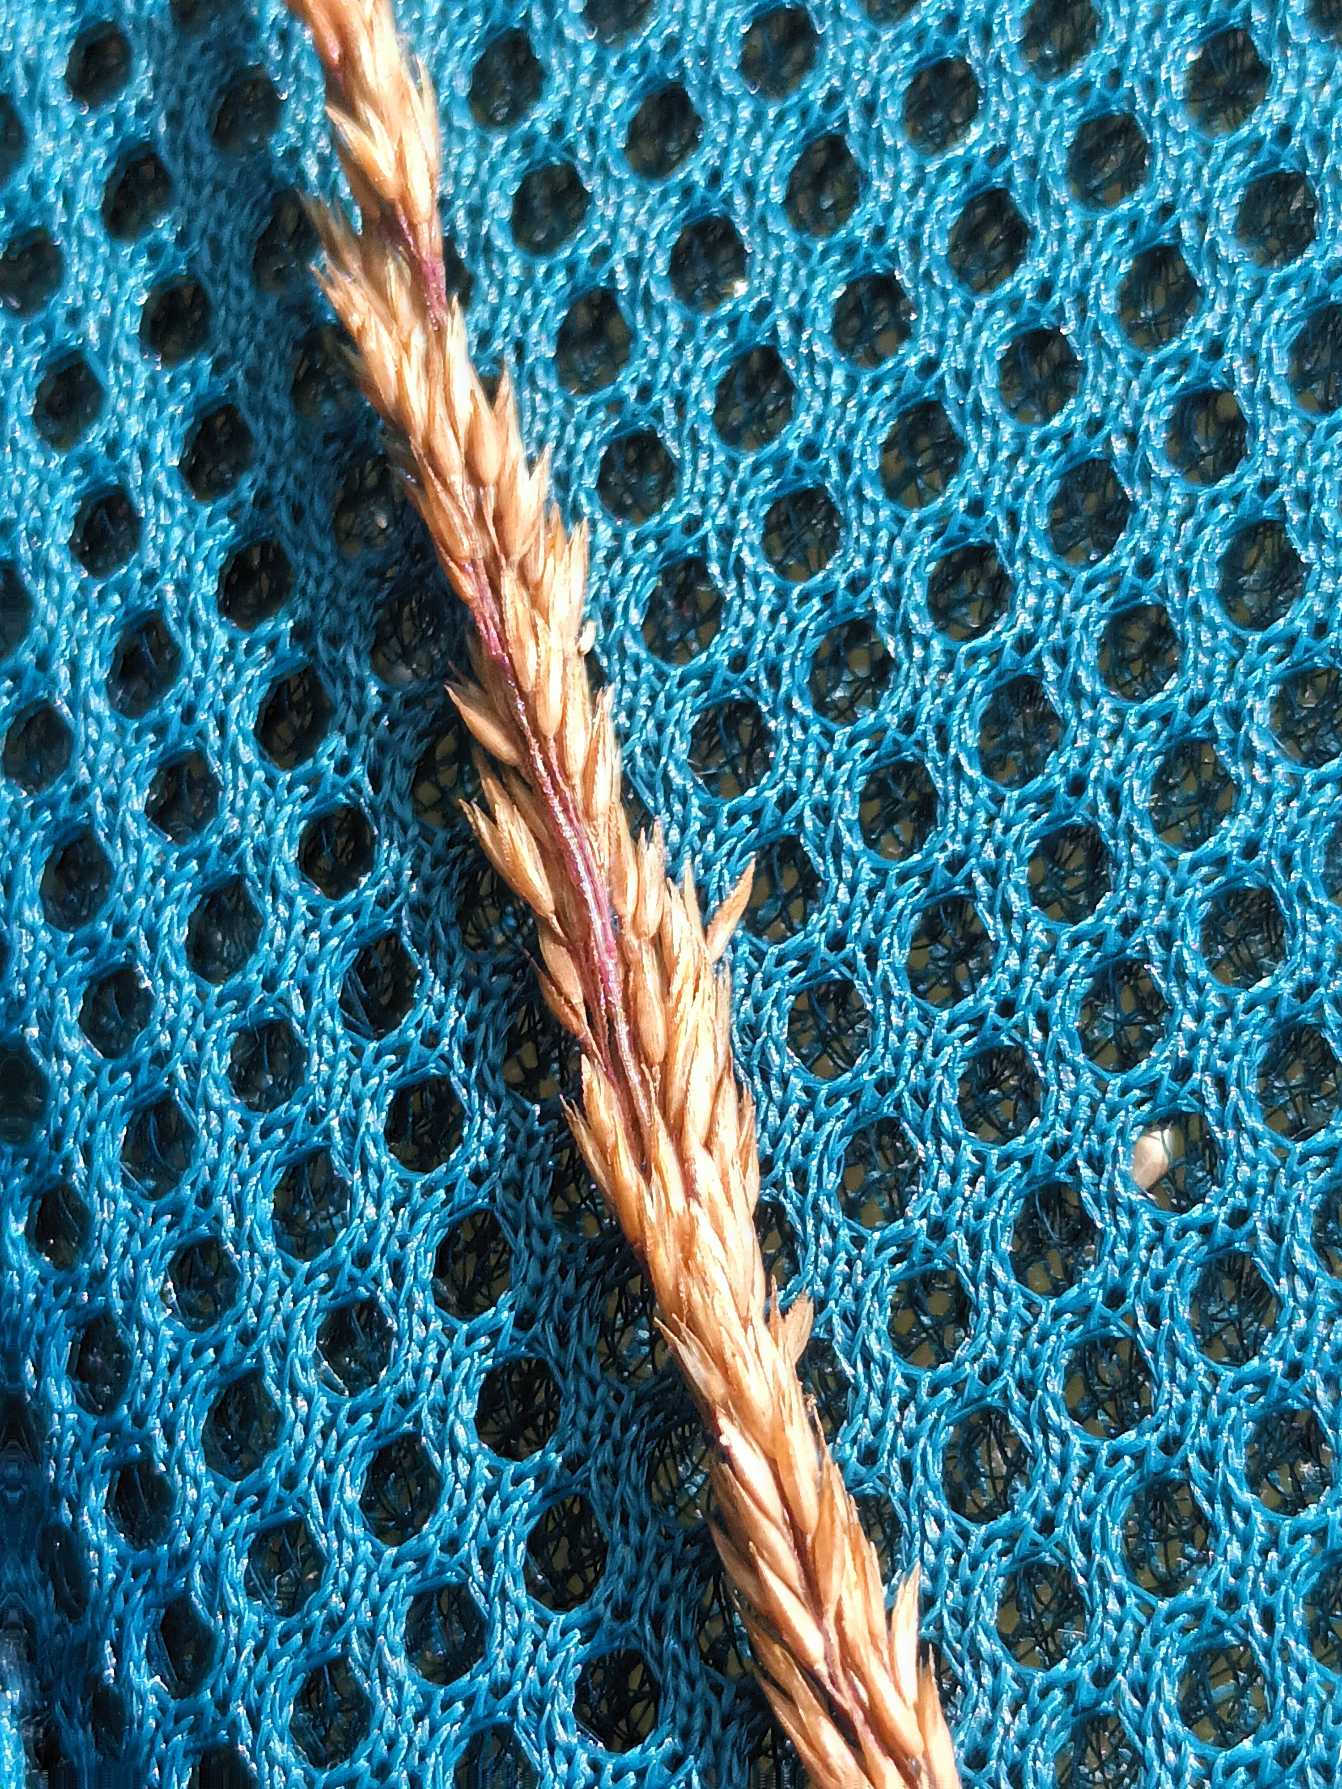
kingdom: Plantae
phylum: Tracheophyta
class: Liliopsida
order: Poales
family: Poaceae
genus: Agrostis
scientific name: Agrostis vinealis
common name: Sand-hvene
